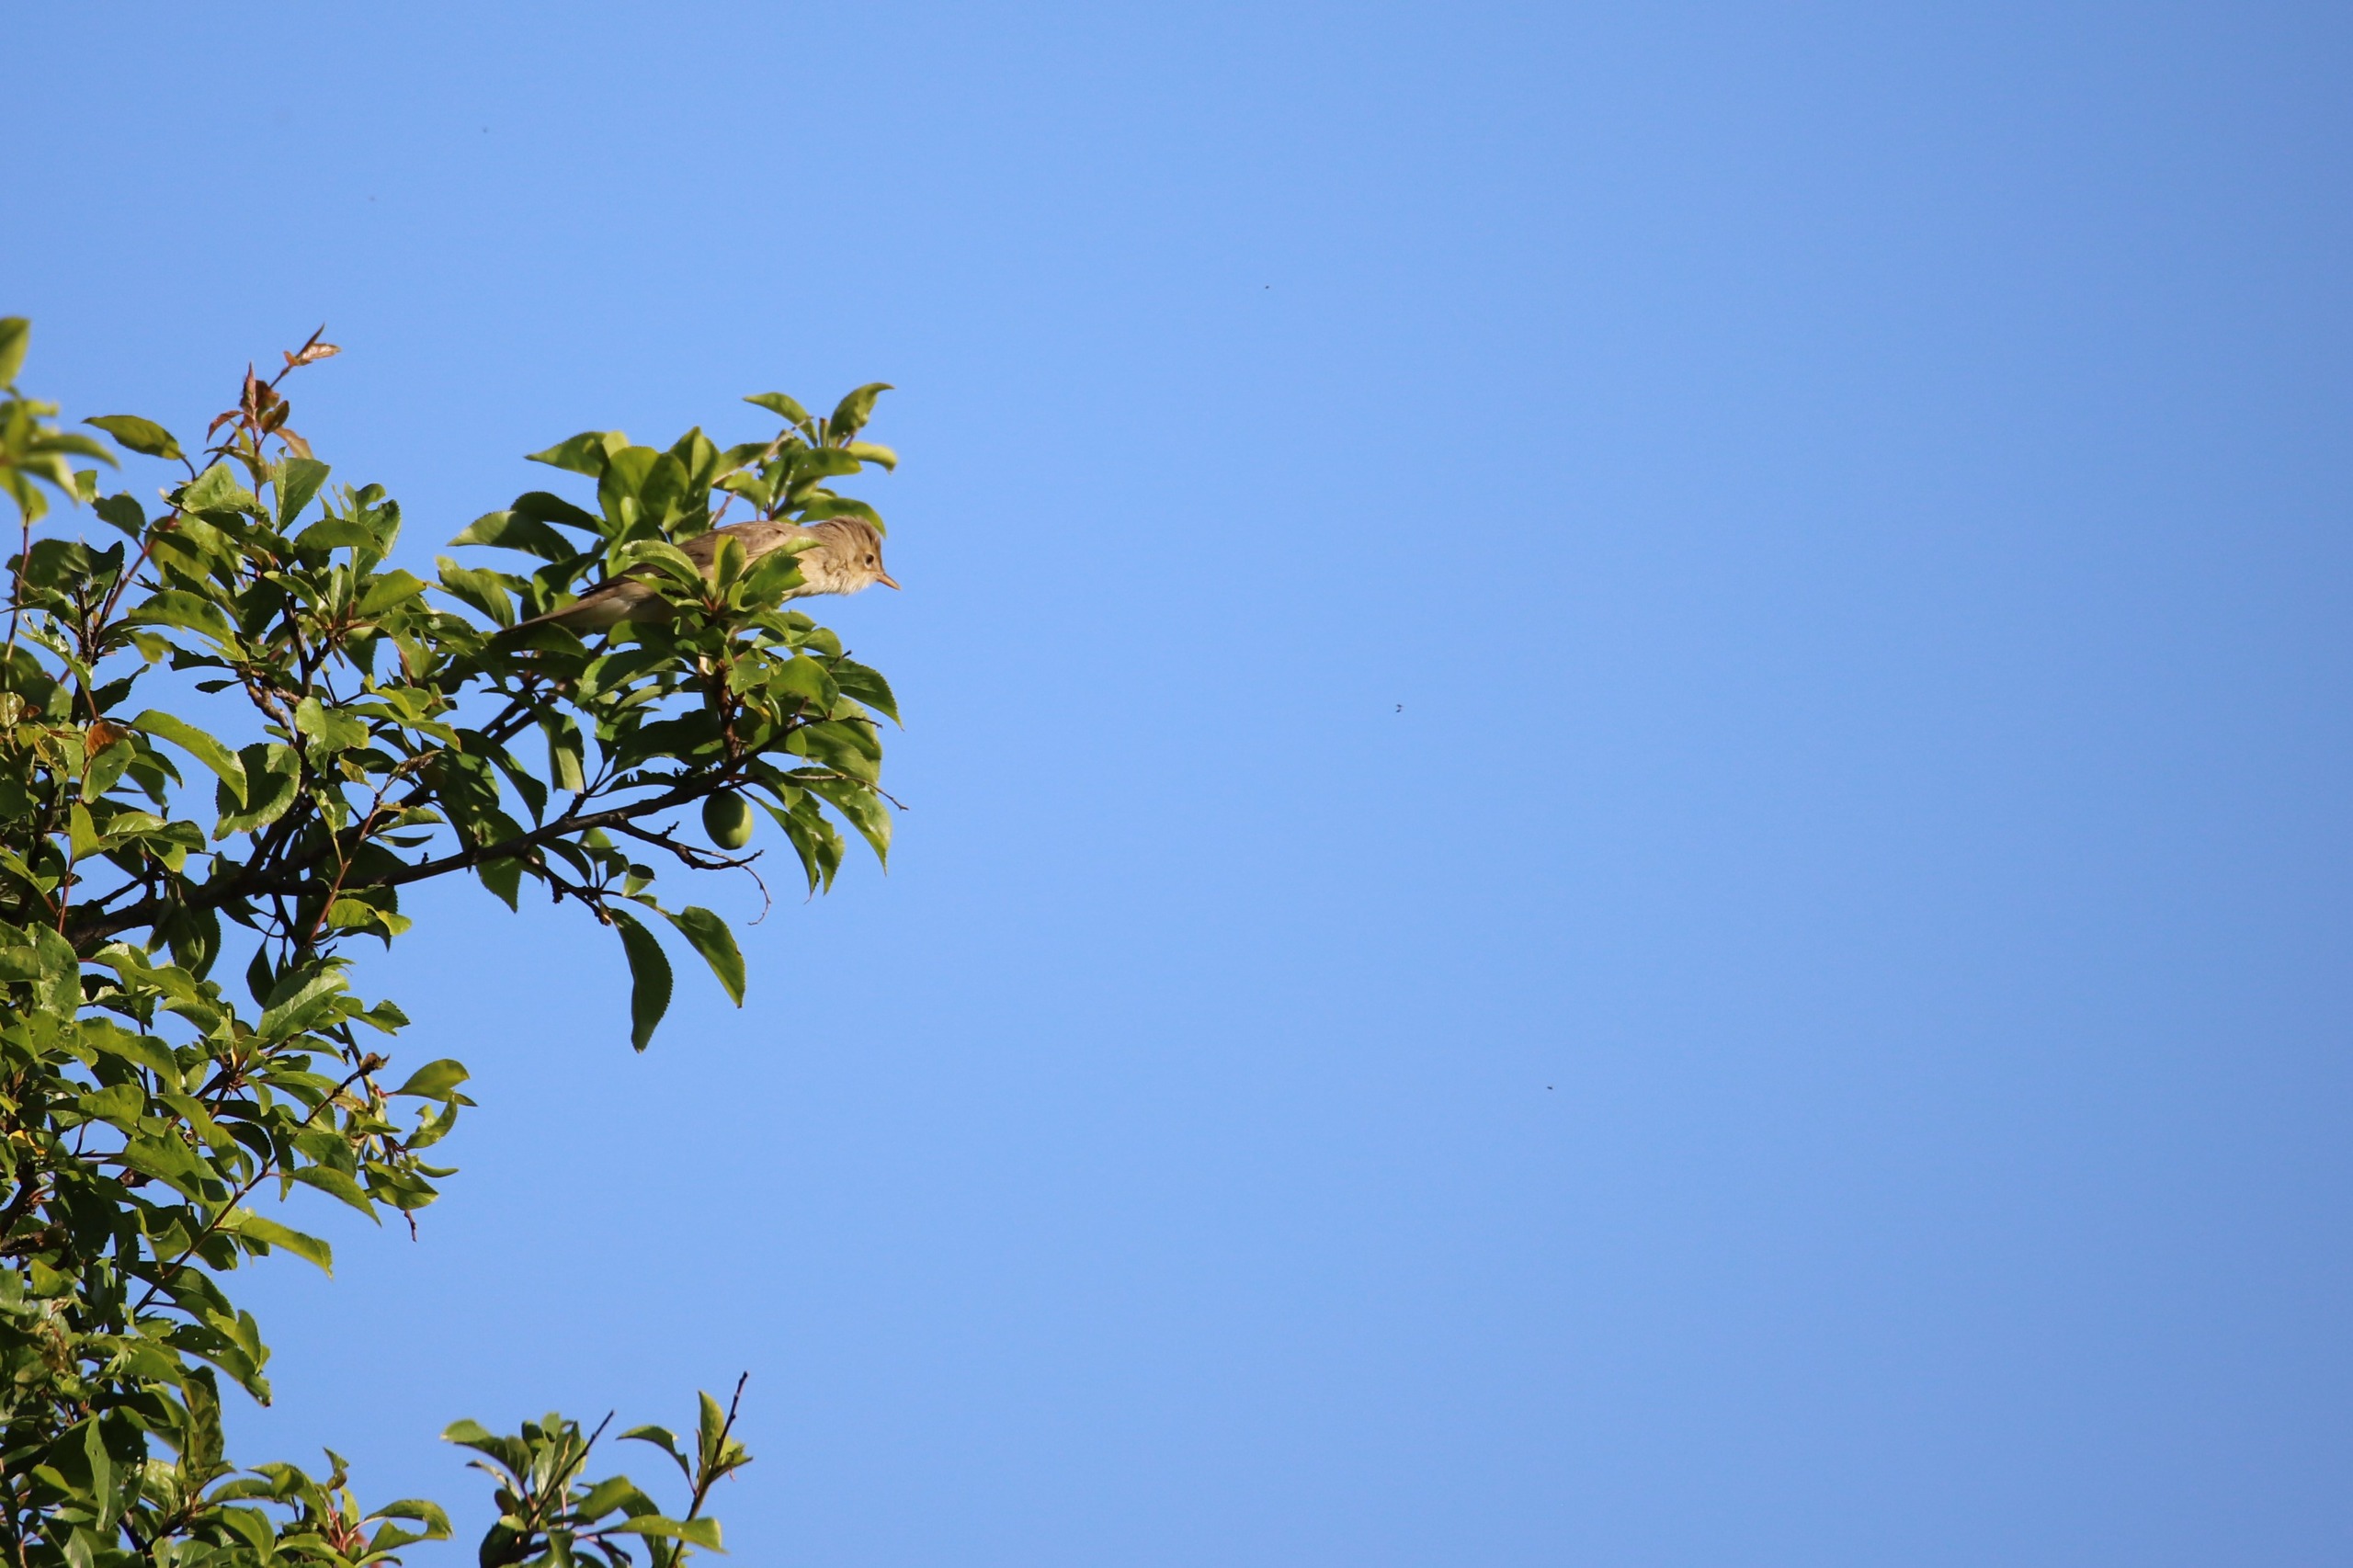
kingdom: Animalia
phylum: Chordata
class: Aves
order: Passeriformes
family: Acrocephalidae
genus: Acrocephalus
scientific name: Acrocephalus palustris
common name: Kærsanger
